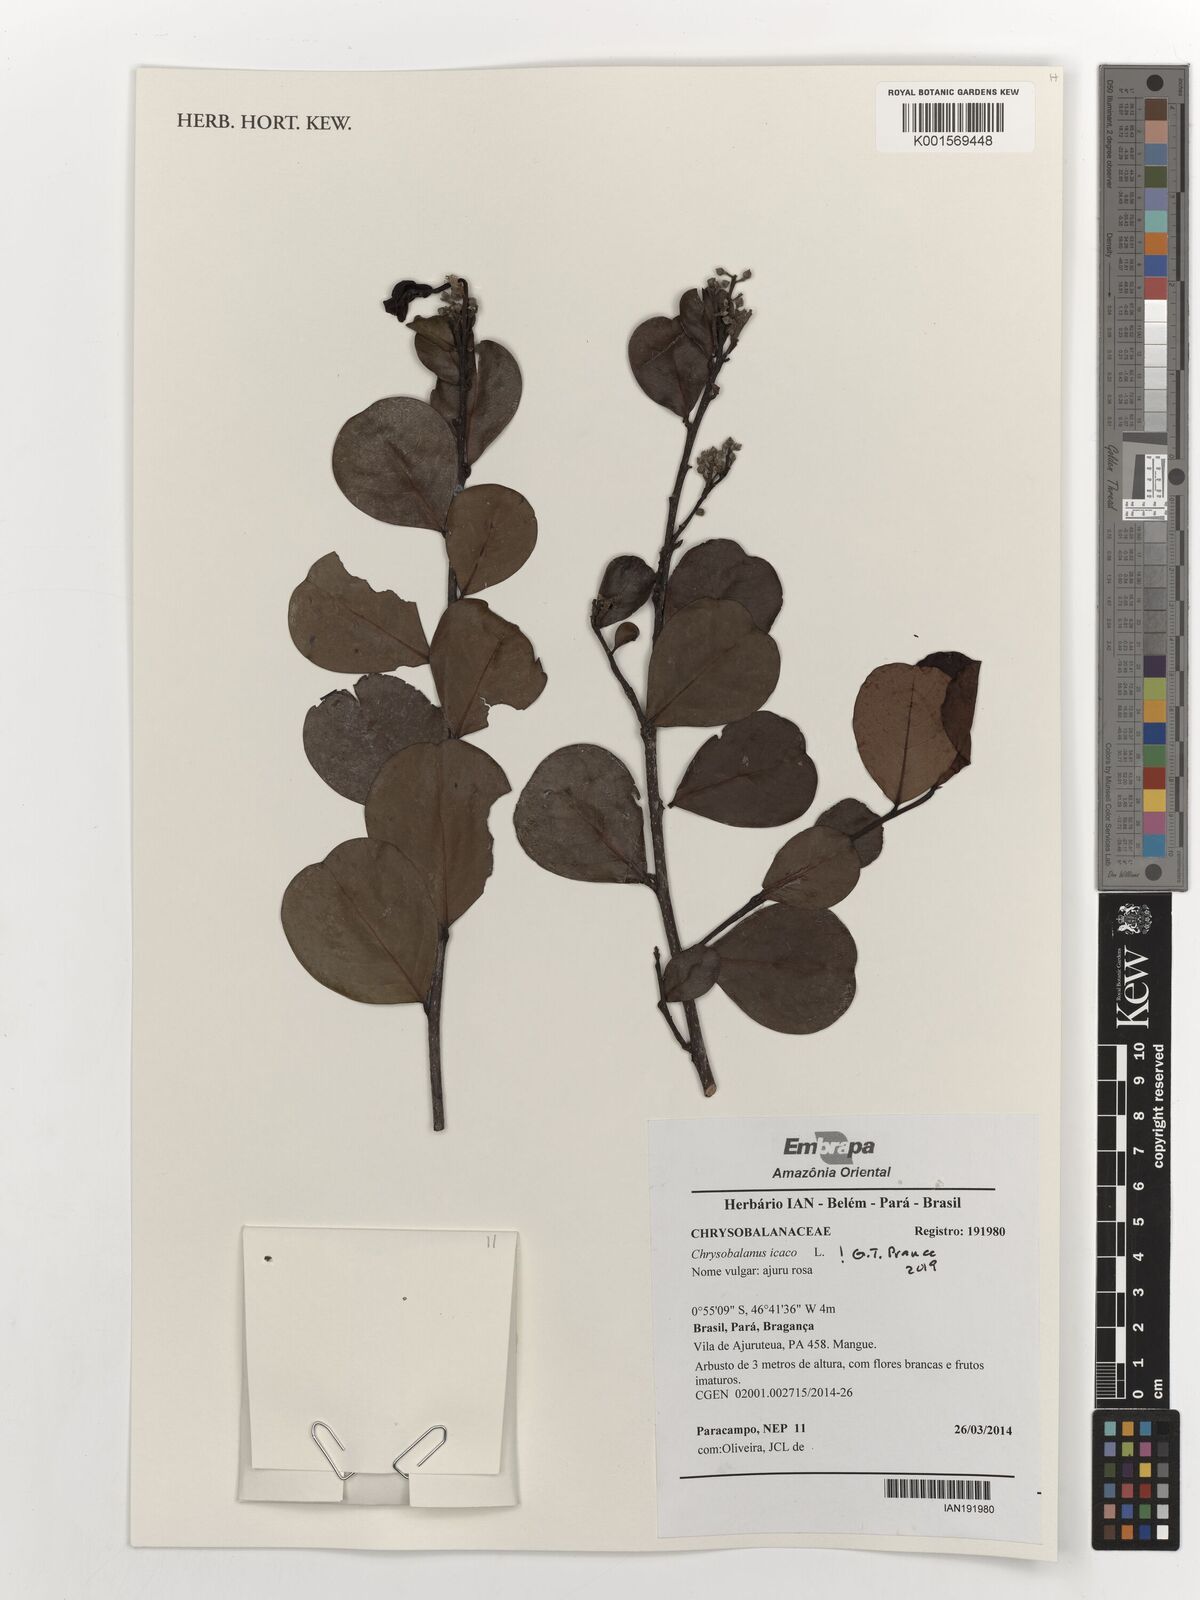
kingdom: Plantae
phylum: Tracheophyta
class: Magnoliopsida
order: Malpighiales
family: Chrysobalanaceae
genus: Chrysobalanus
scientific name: Chrysobalanus icaco
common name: Coco plum
